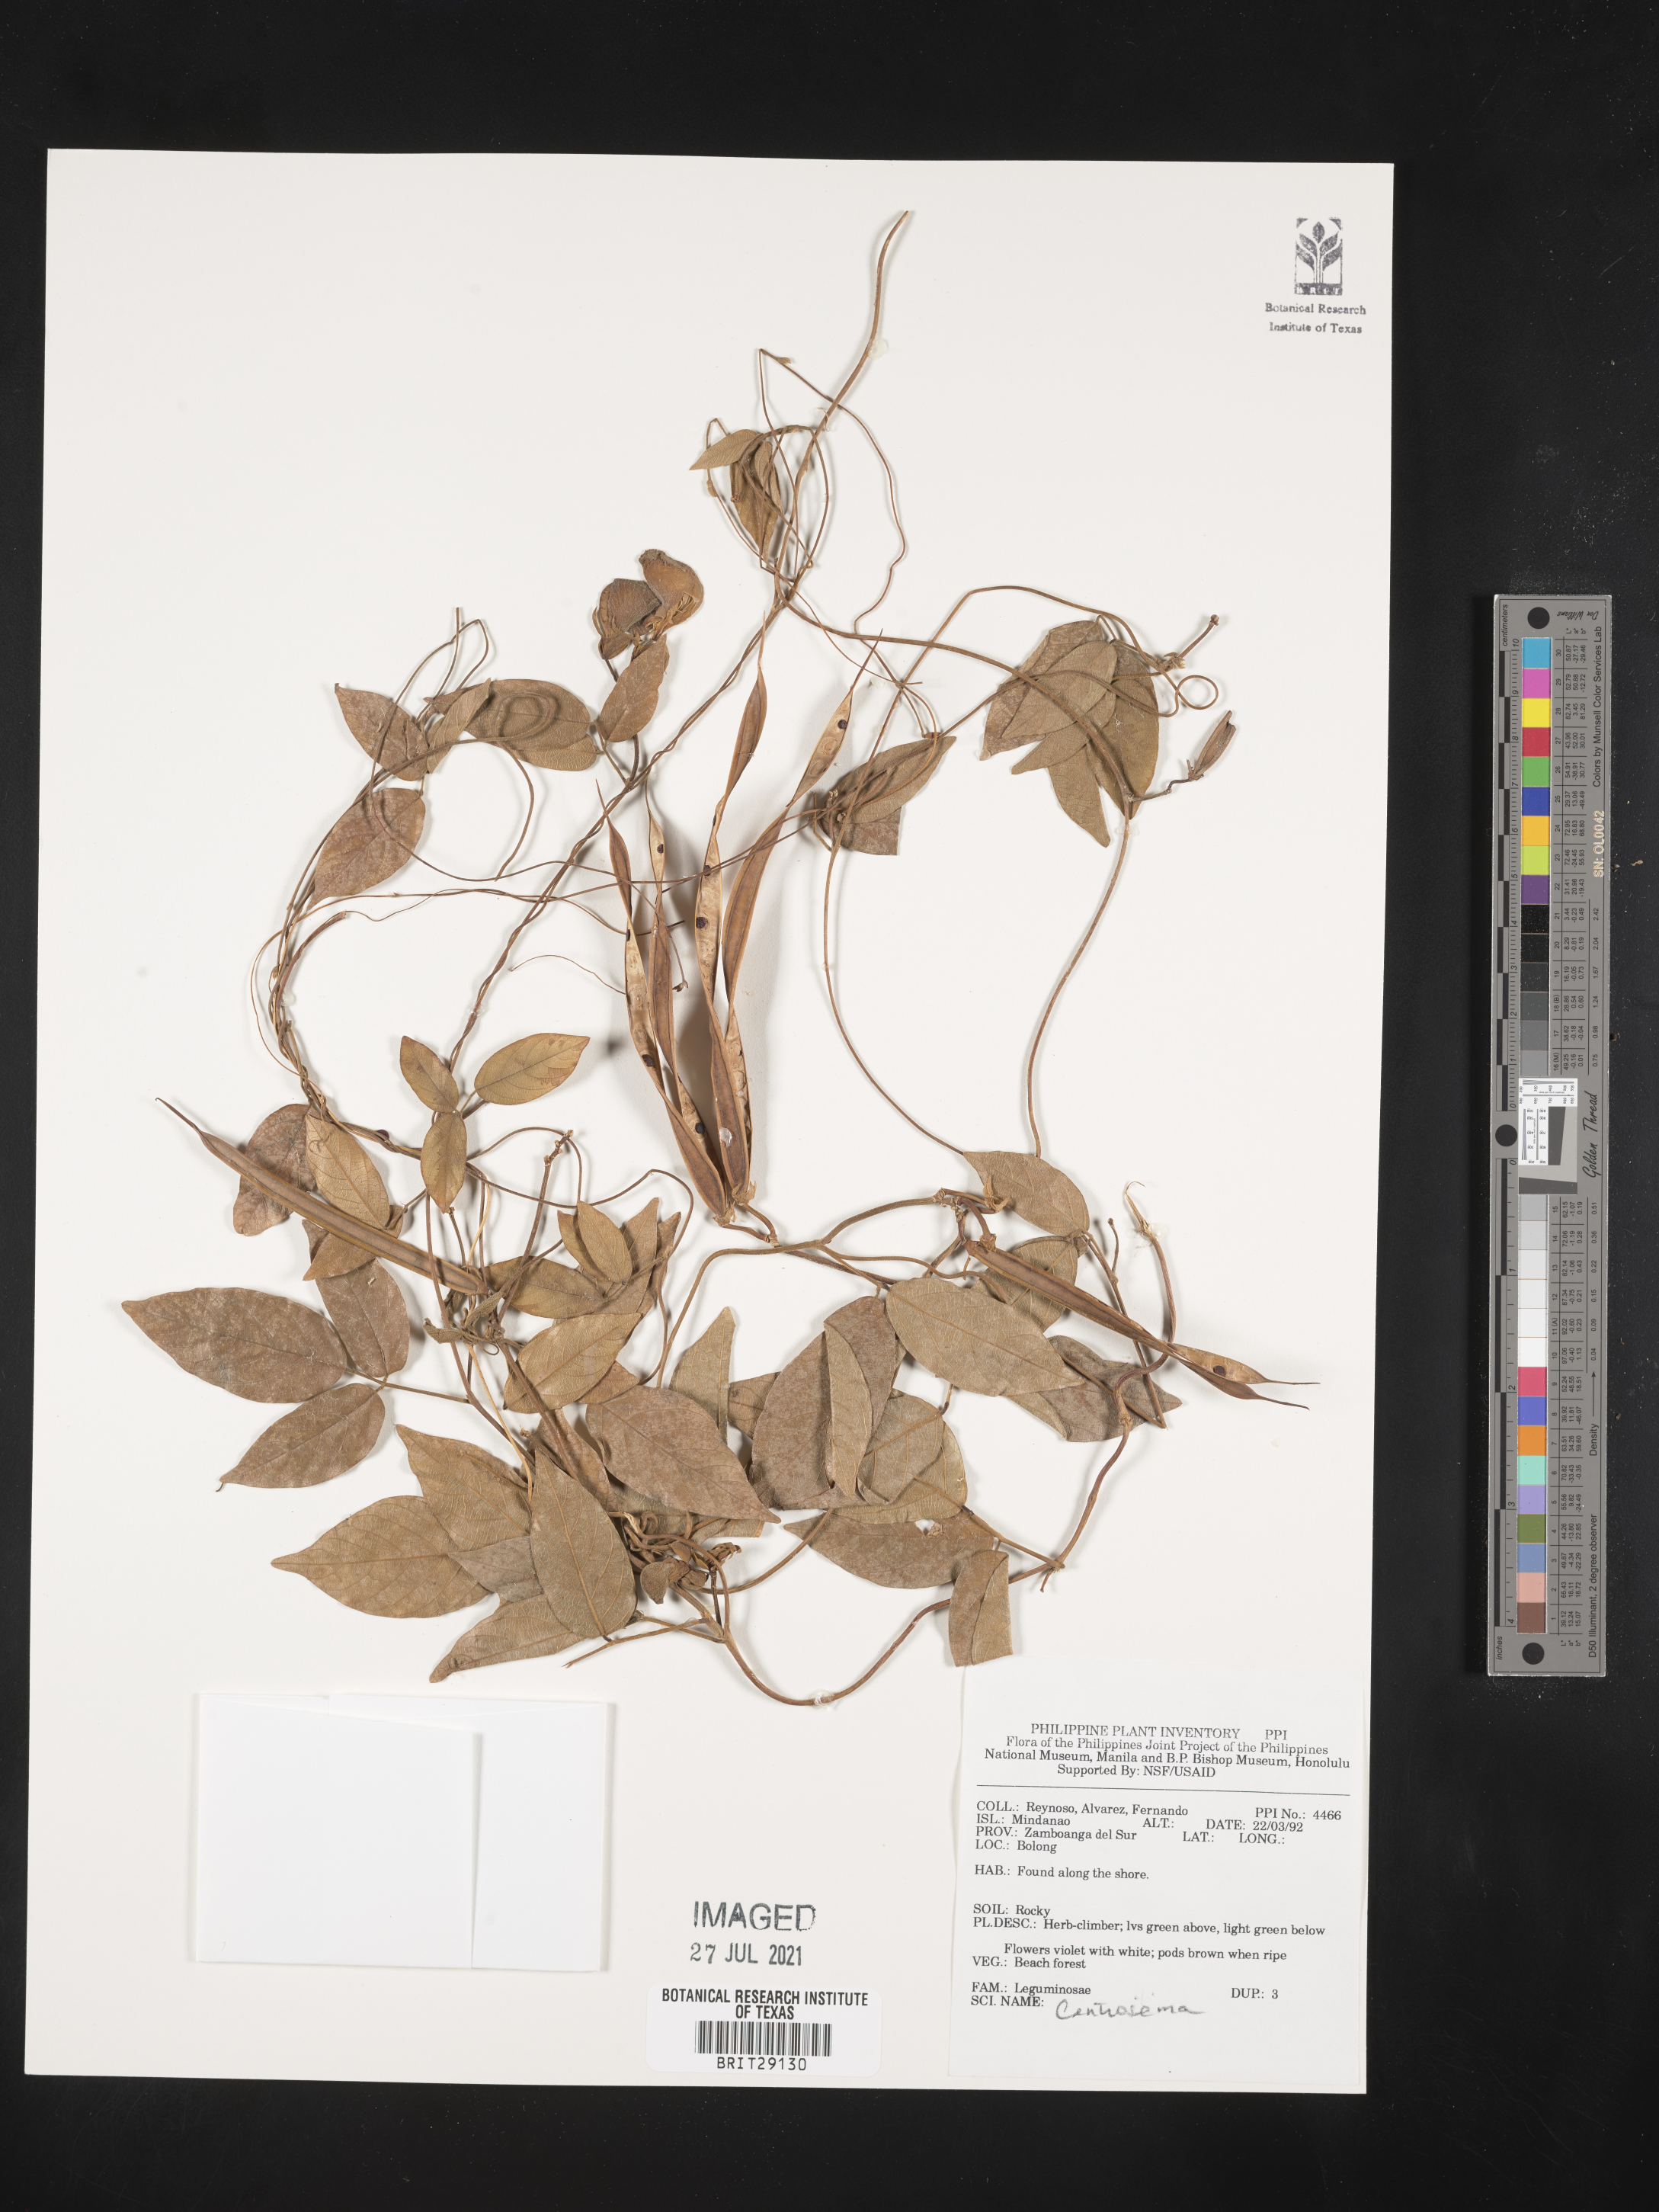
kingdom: Plantae
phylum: Tracheophyta
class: Magnoliopsida
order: Fabales
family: Fabaceae
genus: Centrosema
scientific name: Centrosema
